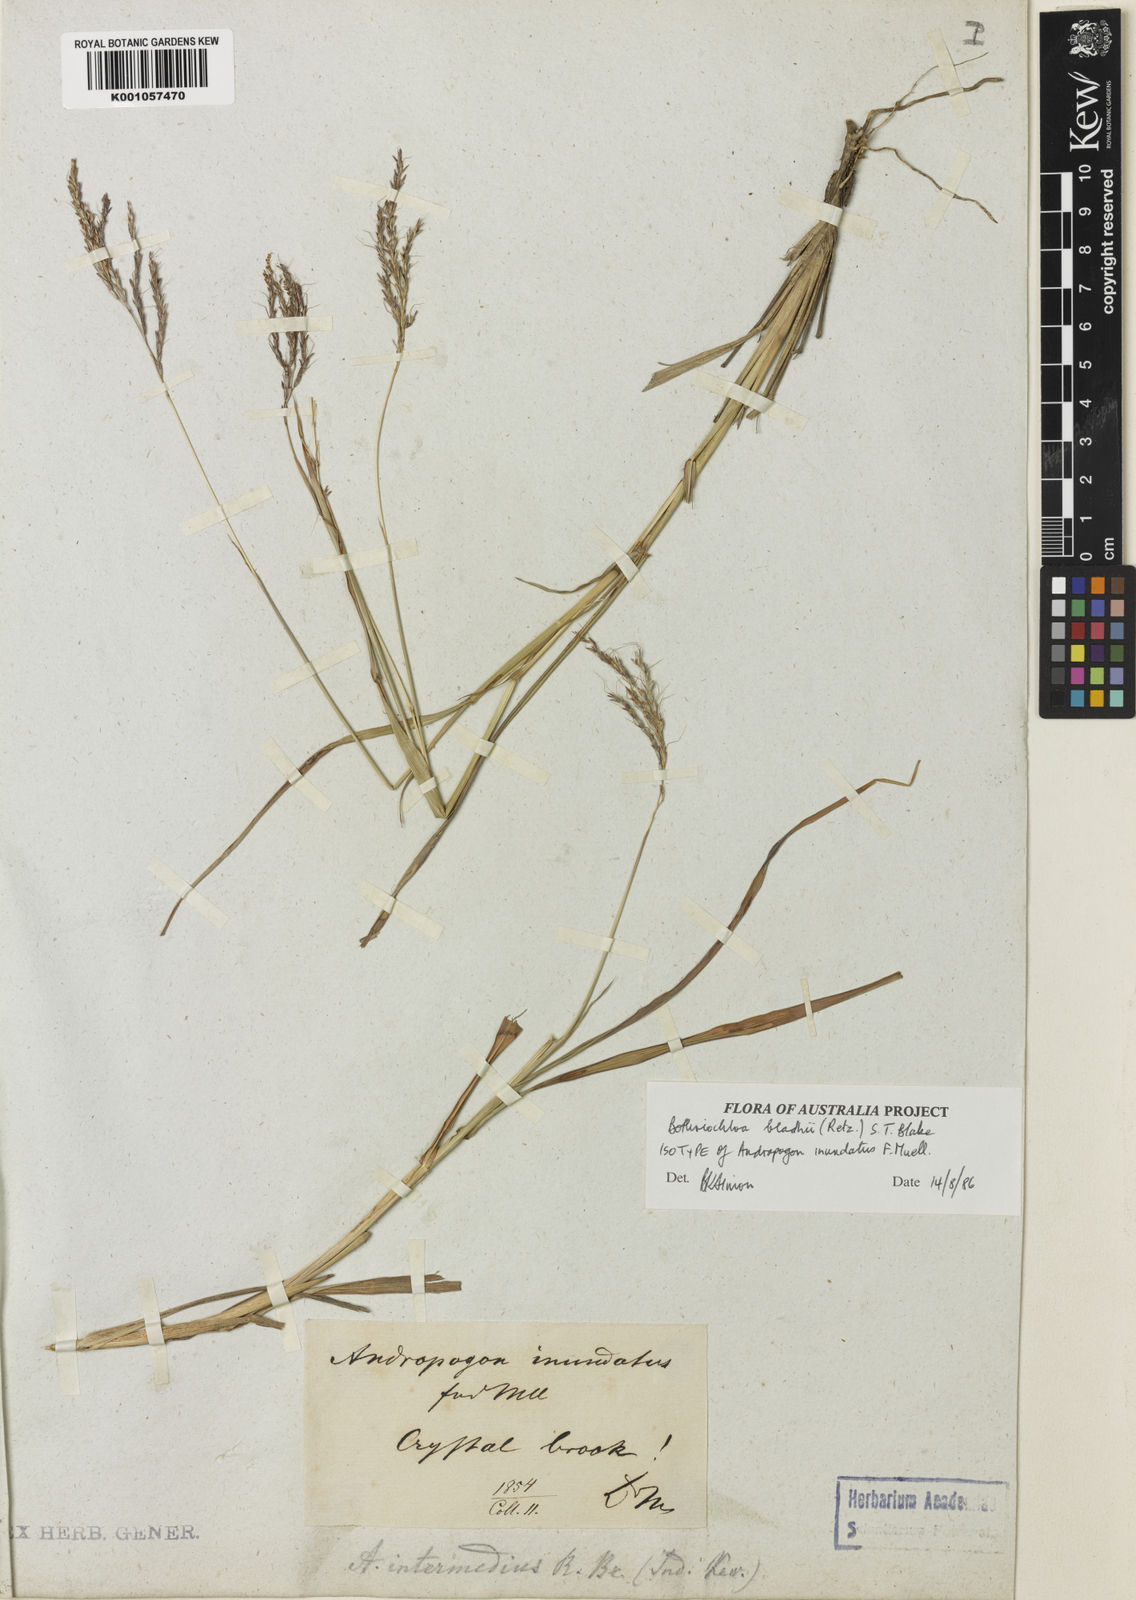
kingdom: Plantae
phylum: Tracheophyta
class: Liliopsida
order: Poales
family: Poaceae
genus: Bothriochloa
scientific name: Bothriochloa bladhii
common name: Caucasian bluestem
